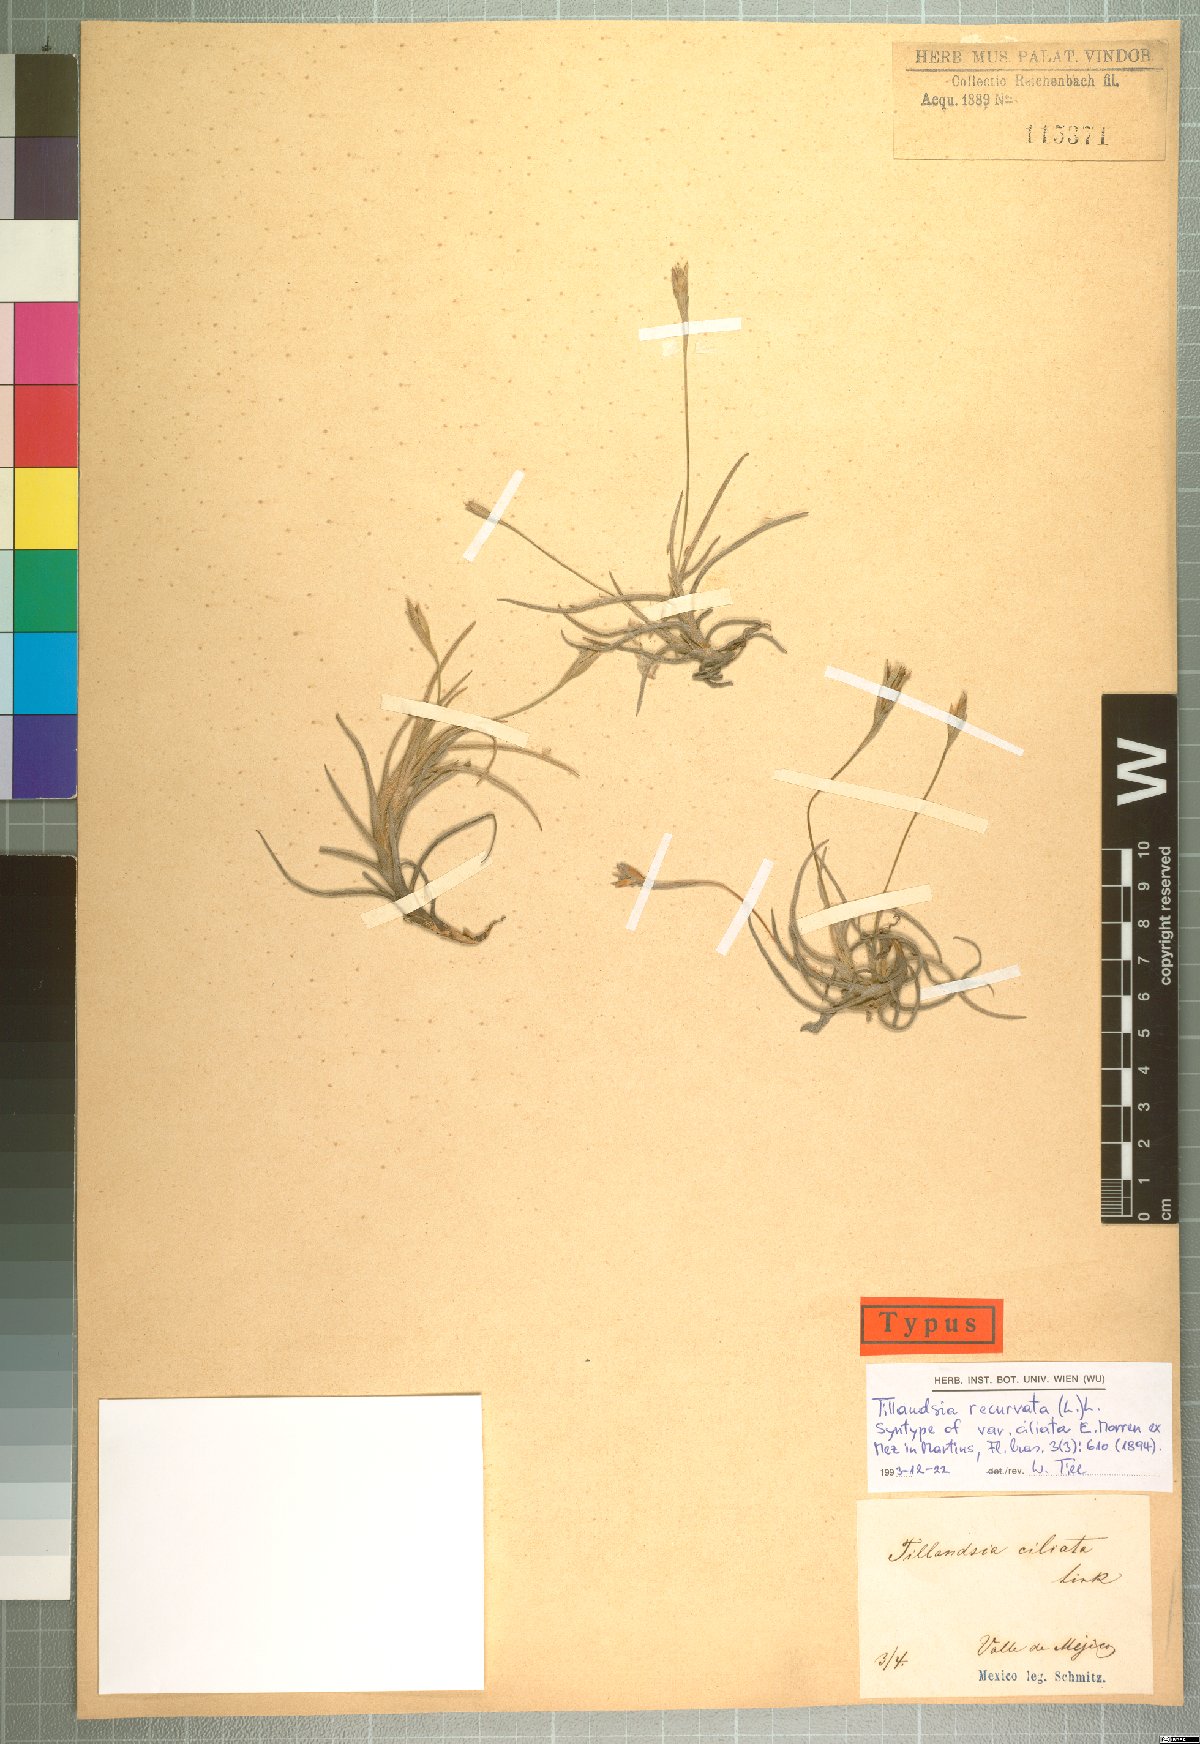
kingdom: Plantae
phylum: Tracheophyta
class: Liliopsida
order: Poales
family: Bromeliaceae
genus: Tillandsia
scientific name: Tillandsia recurvata
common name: Small ballmoss
